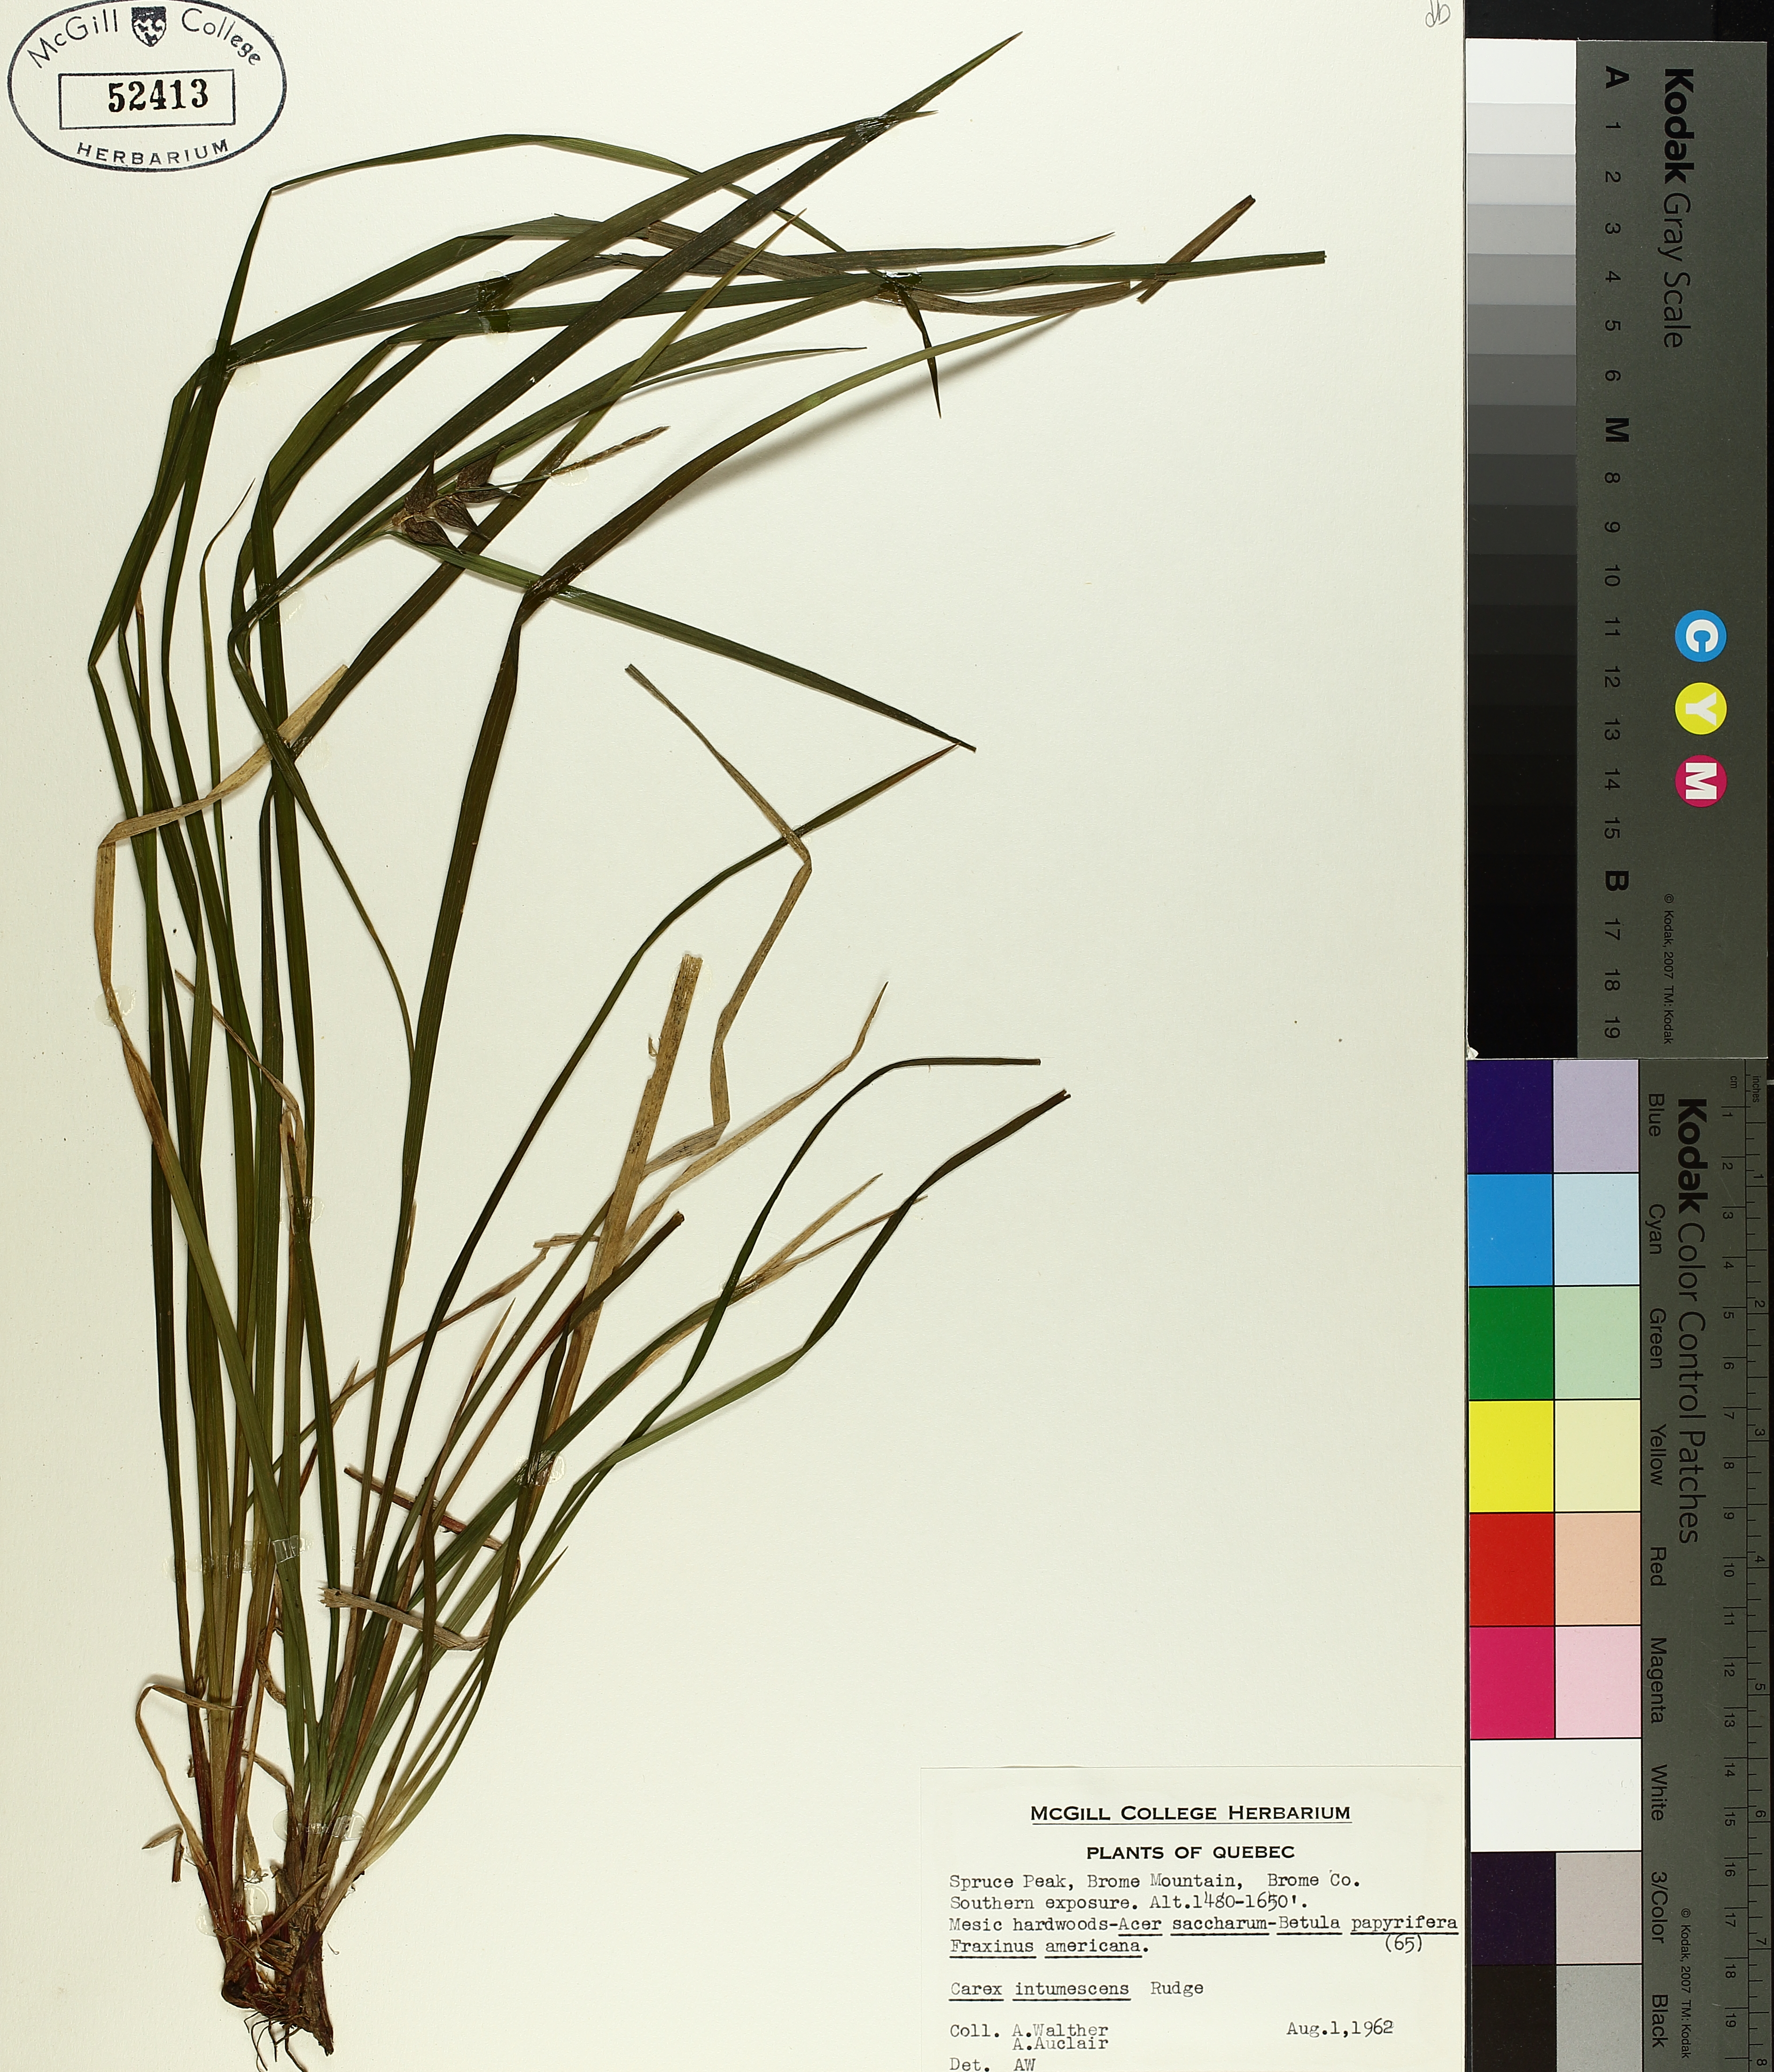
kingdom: Plantae
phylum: Tracheophyta
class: Liliopsida
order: Poales
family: Cyperaceae
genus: Carex
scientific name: Carex intumescens
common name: Greater bladder sedge
